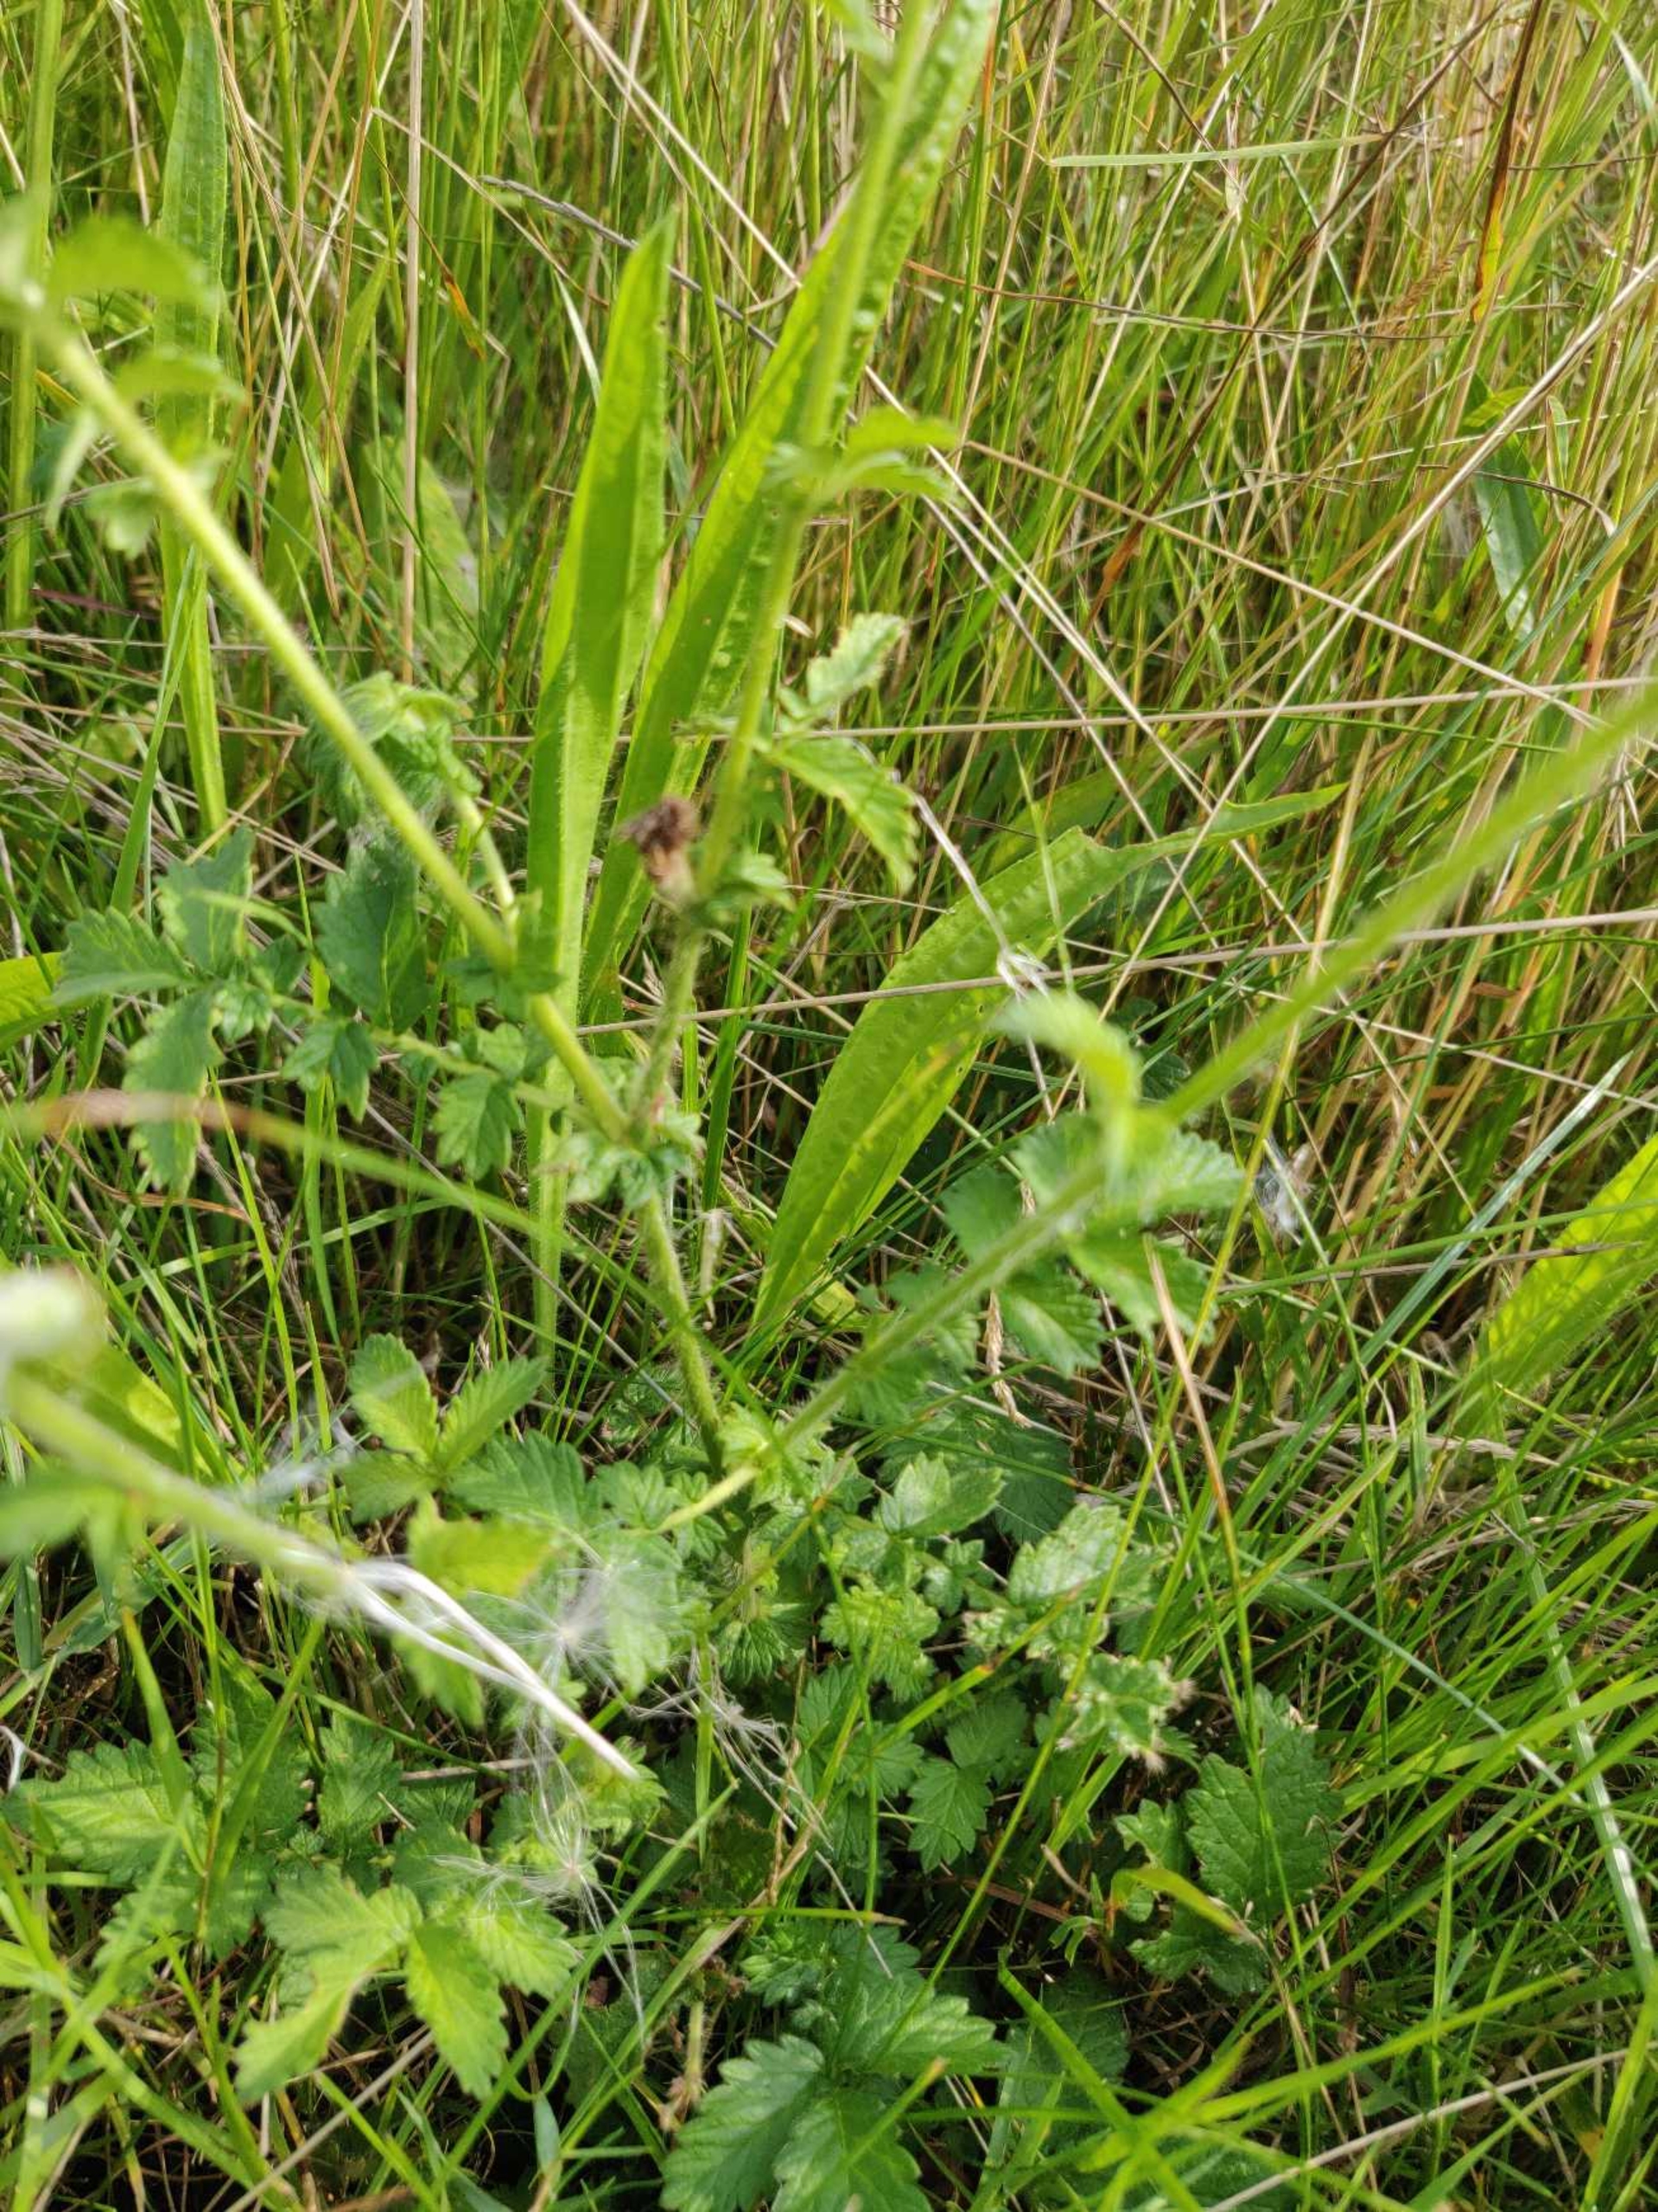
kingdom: Plantae
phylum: Tracheophyta
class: Magnoliopsida
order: Rosales
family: Rosaceae
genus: Agrimonia
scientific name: Agrimonia eupatoria
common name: Almindelig agermåne
